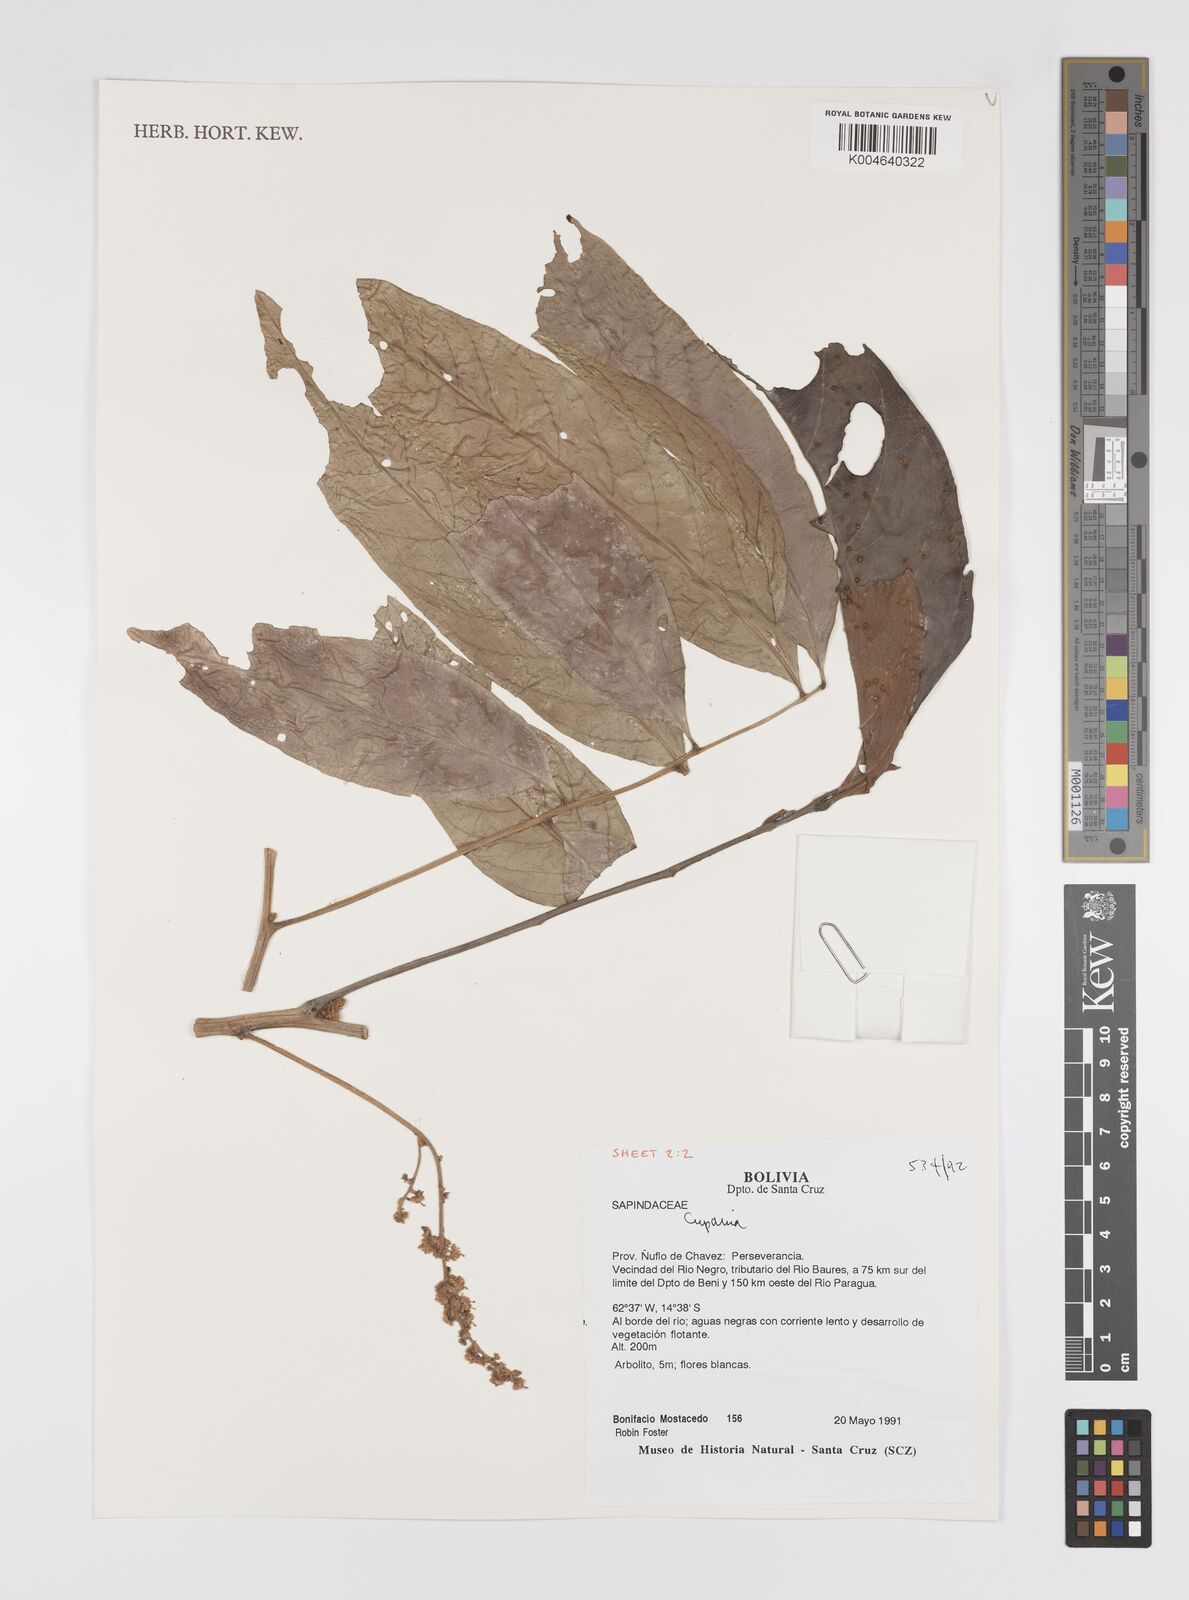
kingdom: Plantae
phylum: Tracheophyta
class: Magnoliopsida
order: Sapindales
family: Sapindaceae
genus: Cupania
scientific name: Cupania
